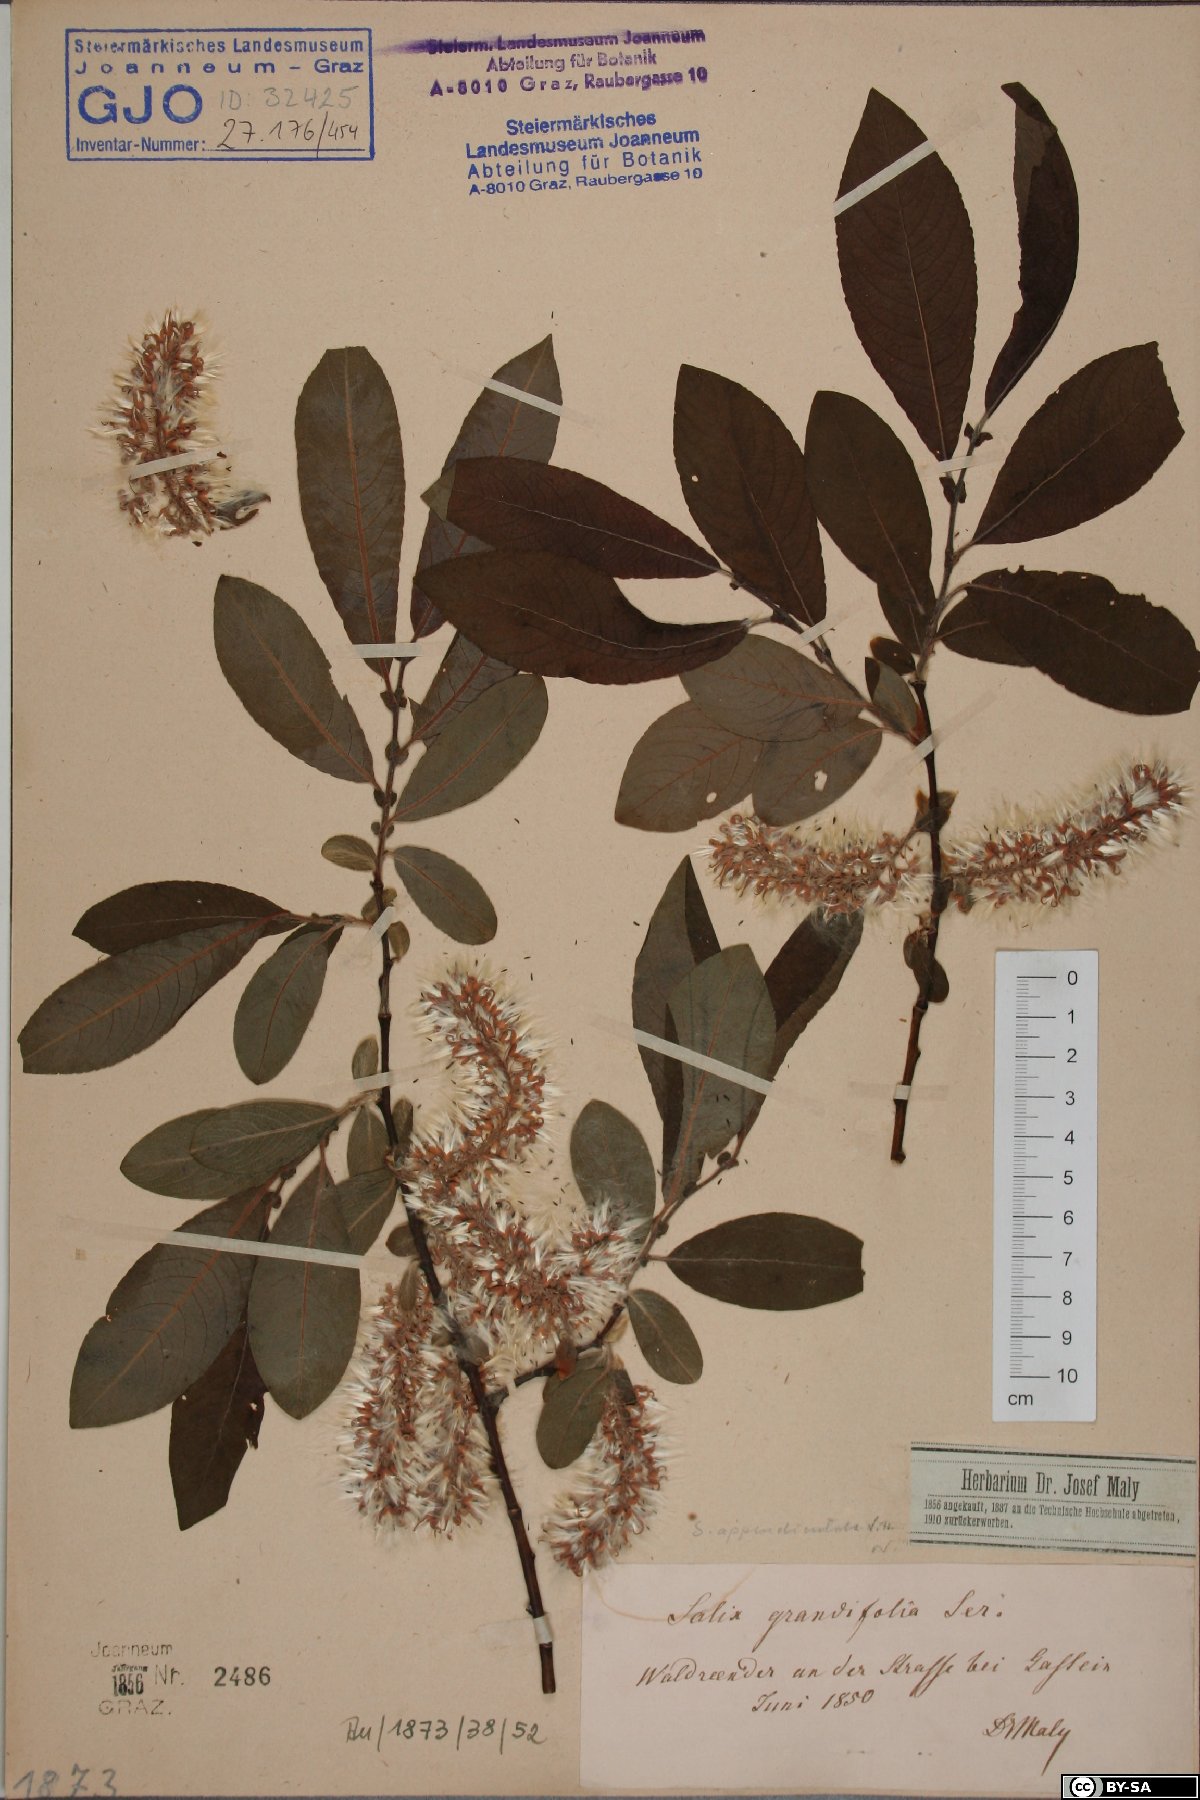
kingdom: Plantae
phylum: Tracheophyta
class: Magnoliopsida
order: Malpighiales
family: Salicaceae
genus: Salix
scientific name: Salix appendiculata
